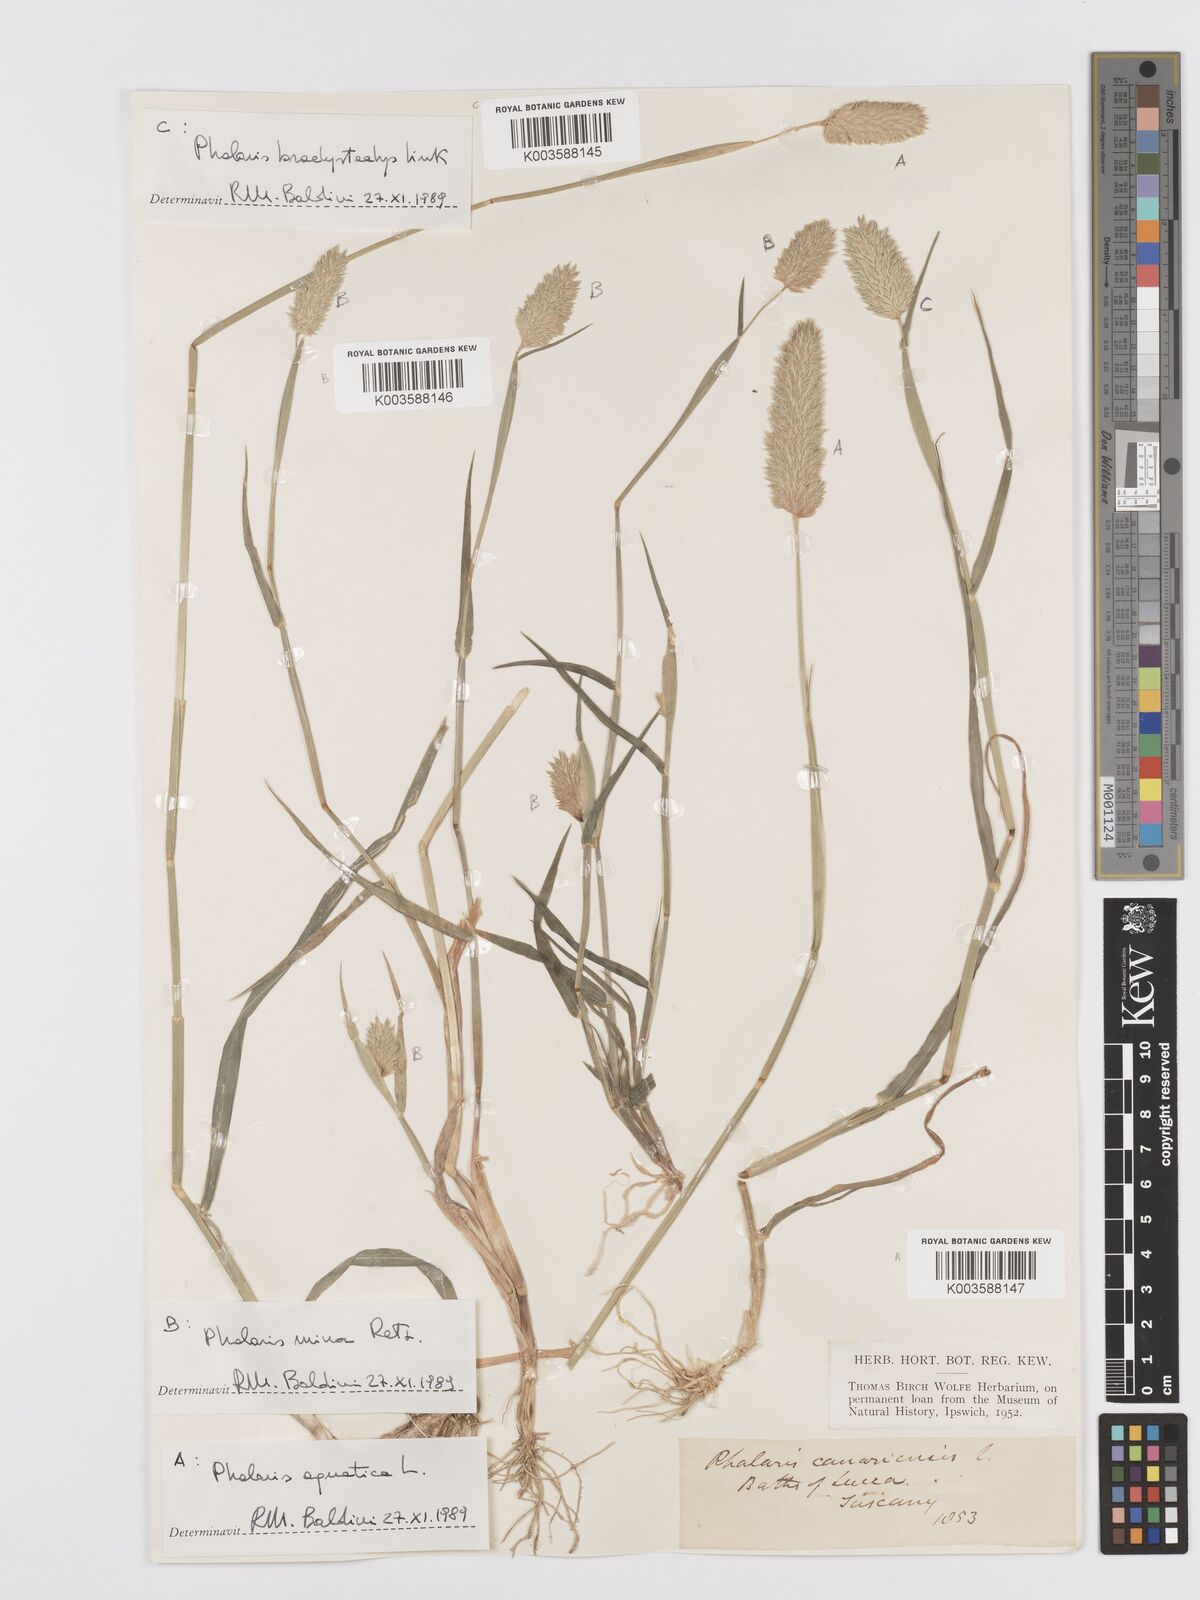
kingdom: Plantae
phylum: Tracheophyta
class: Liliopsida
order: Poales
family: Poaceae
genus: Phalaris
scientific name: Phalaris canariensis
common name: Annual canarygrass
